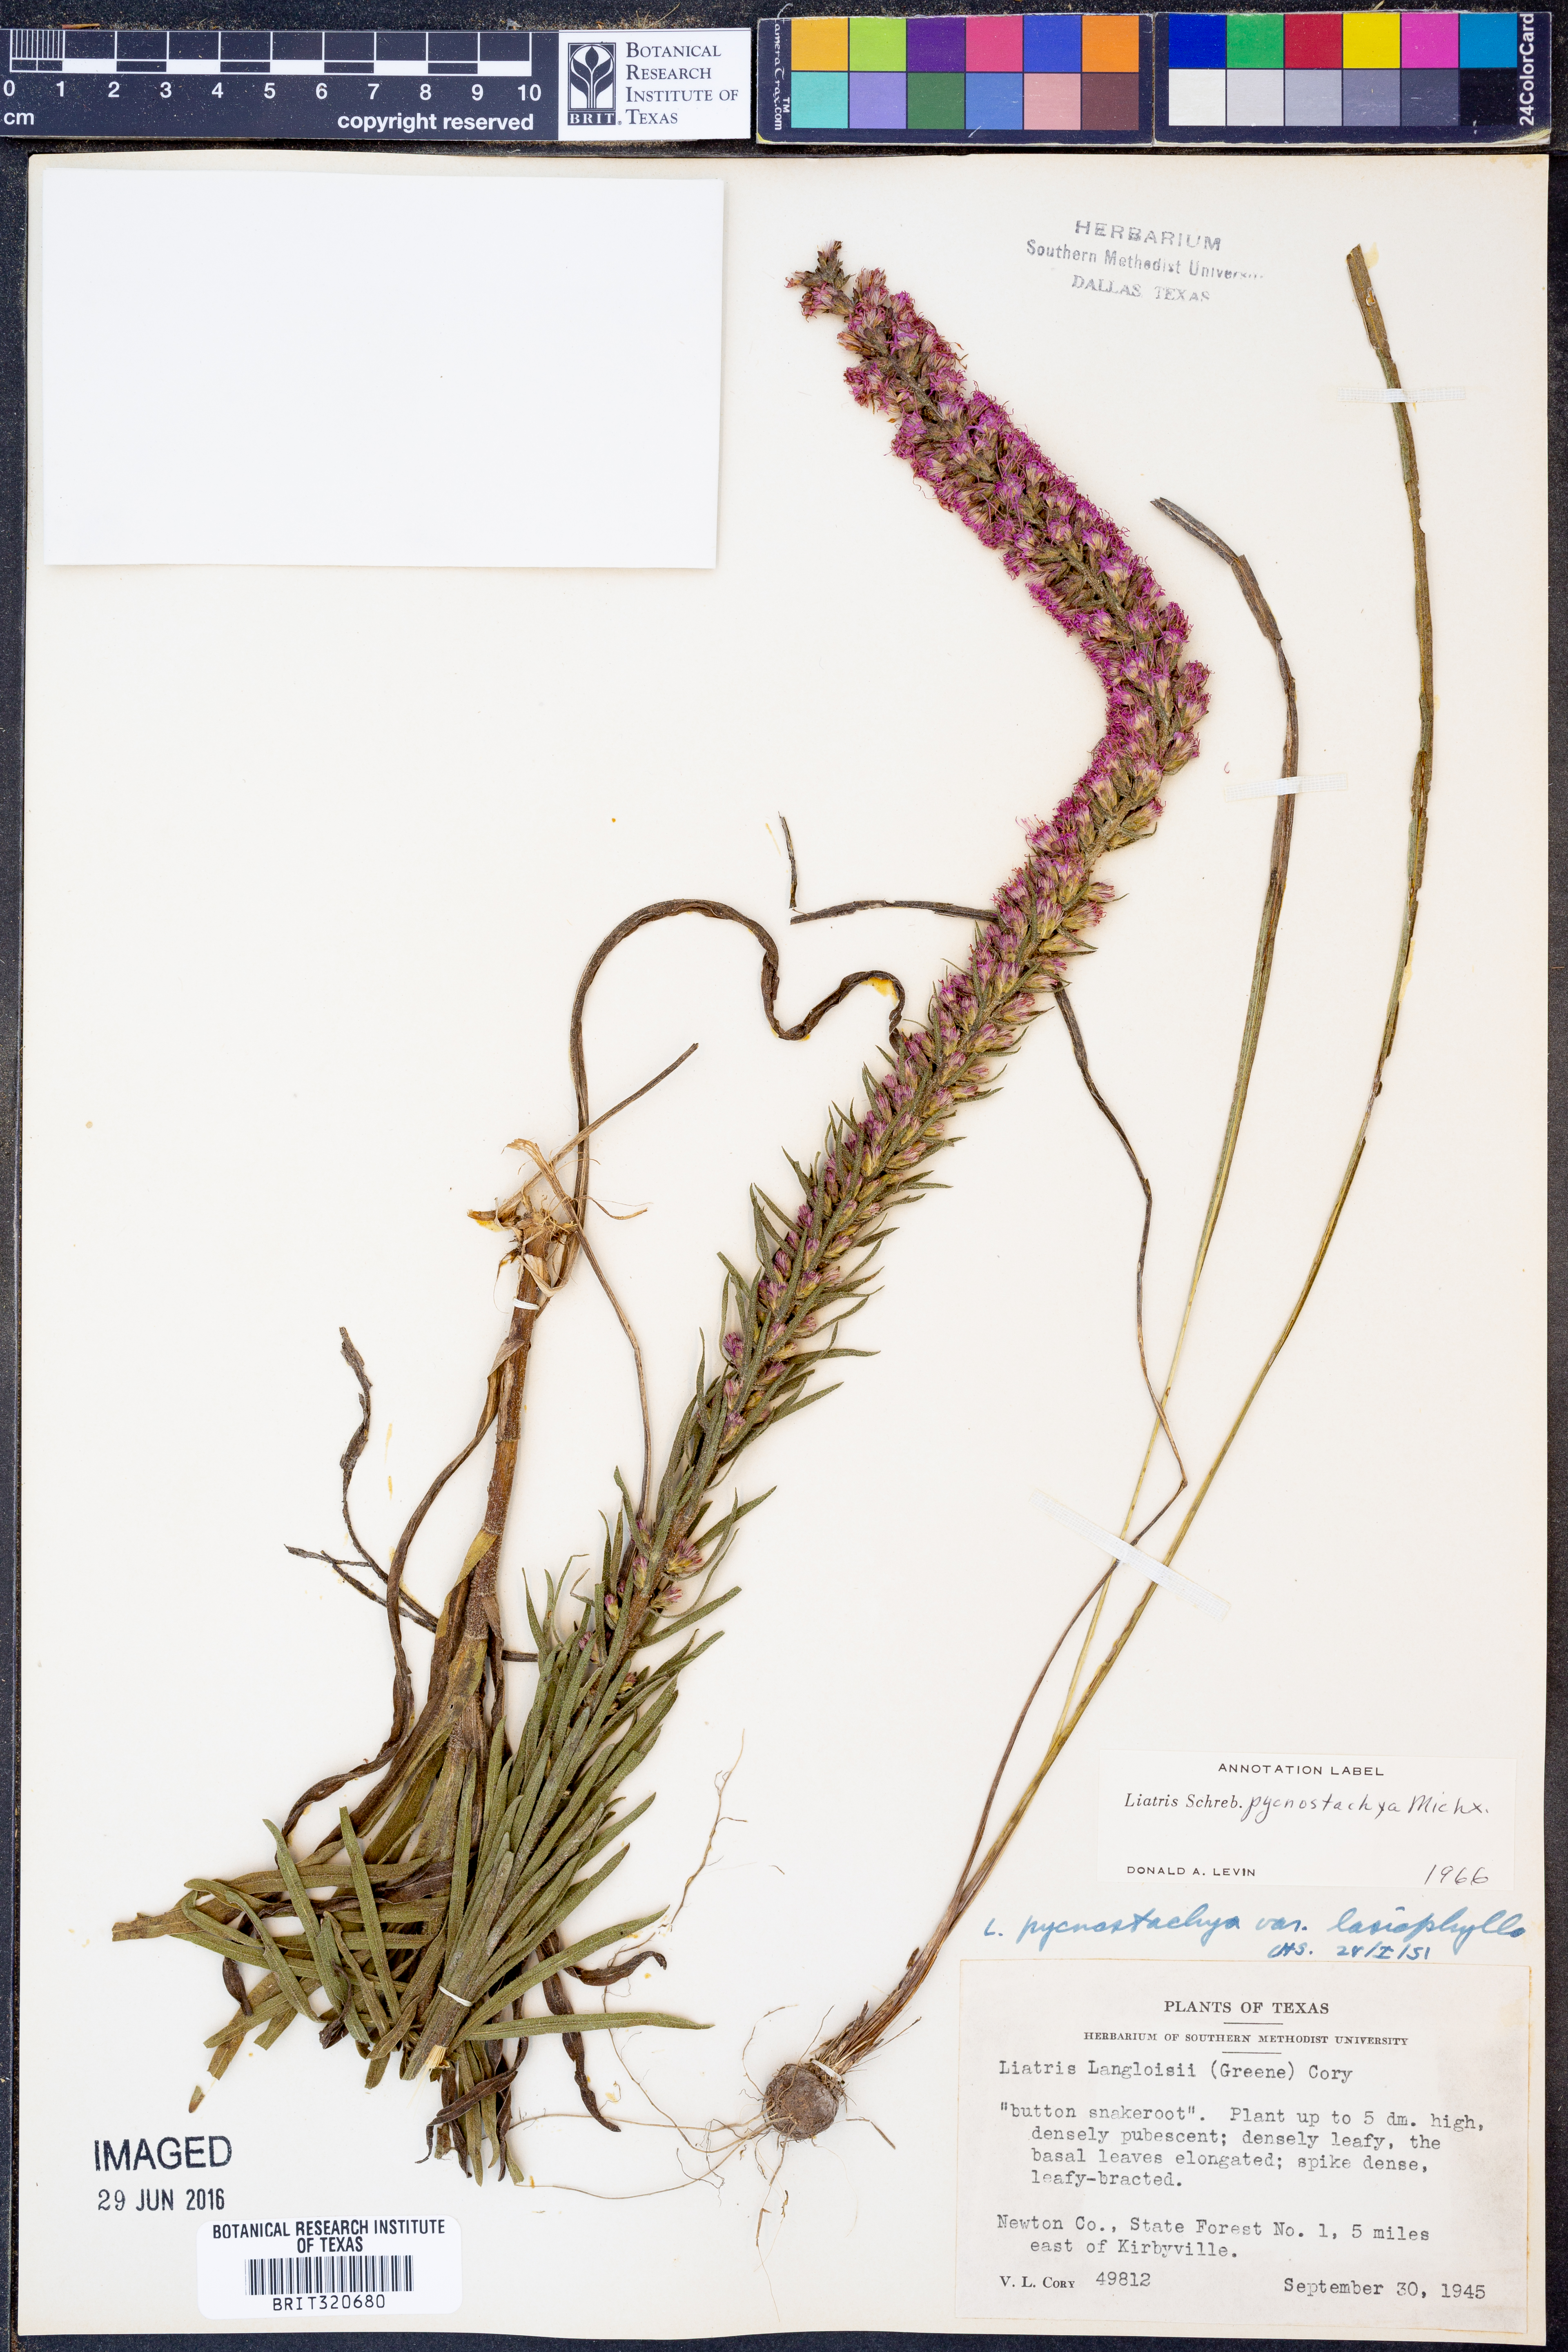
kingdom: Plantae
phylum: Tracheophyta
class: Magnoliopsida
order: Asterales
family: Asteraceae
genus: Liatris
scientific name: Liatris pycnostachya
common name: Cattail gayfeather
